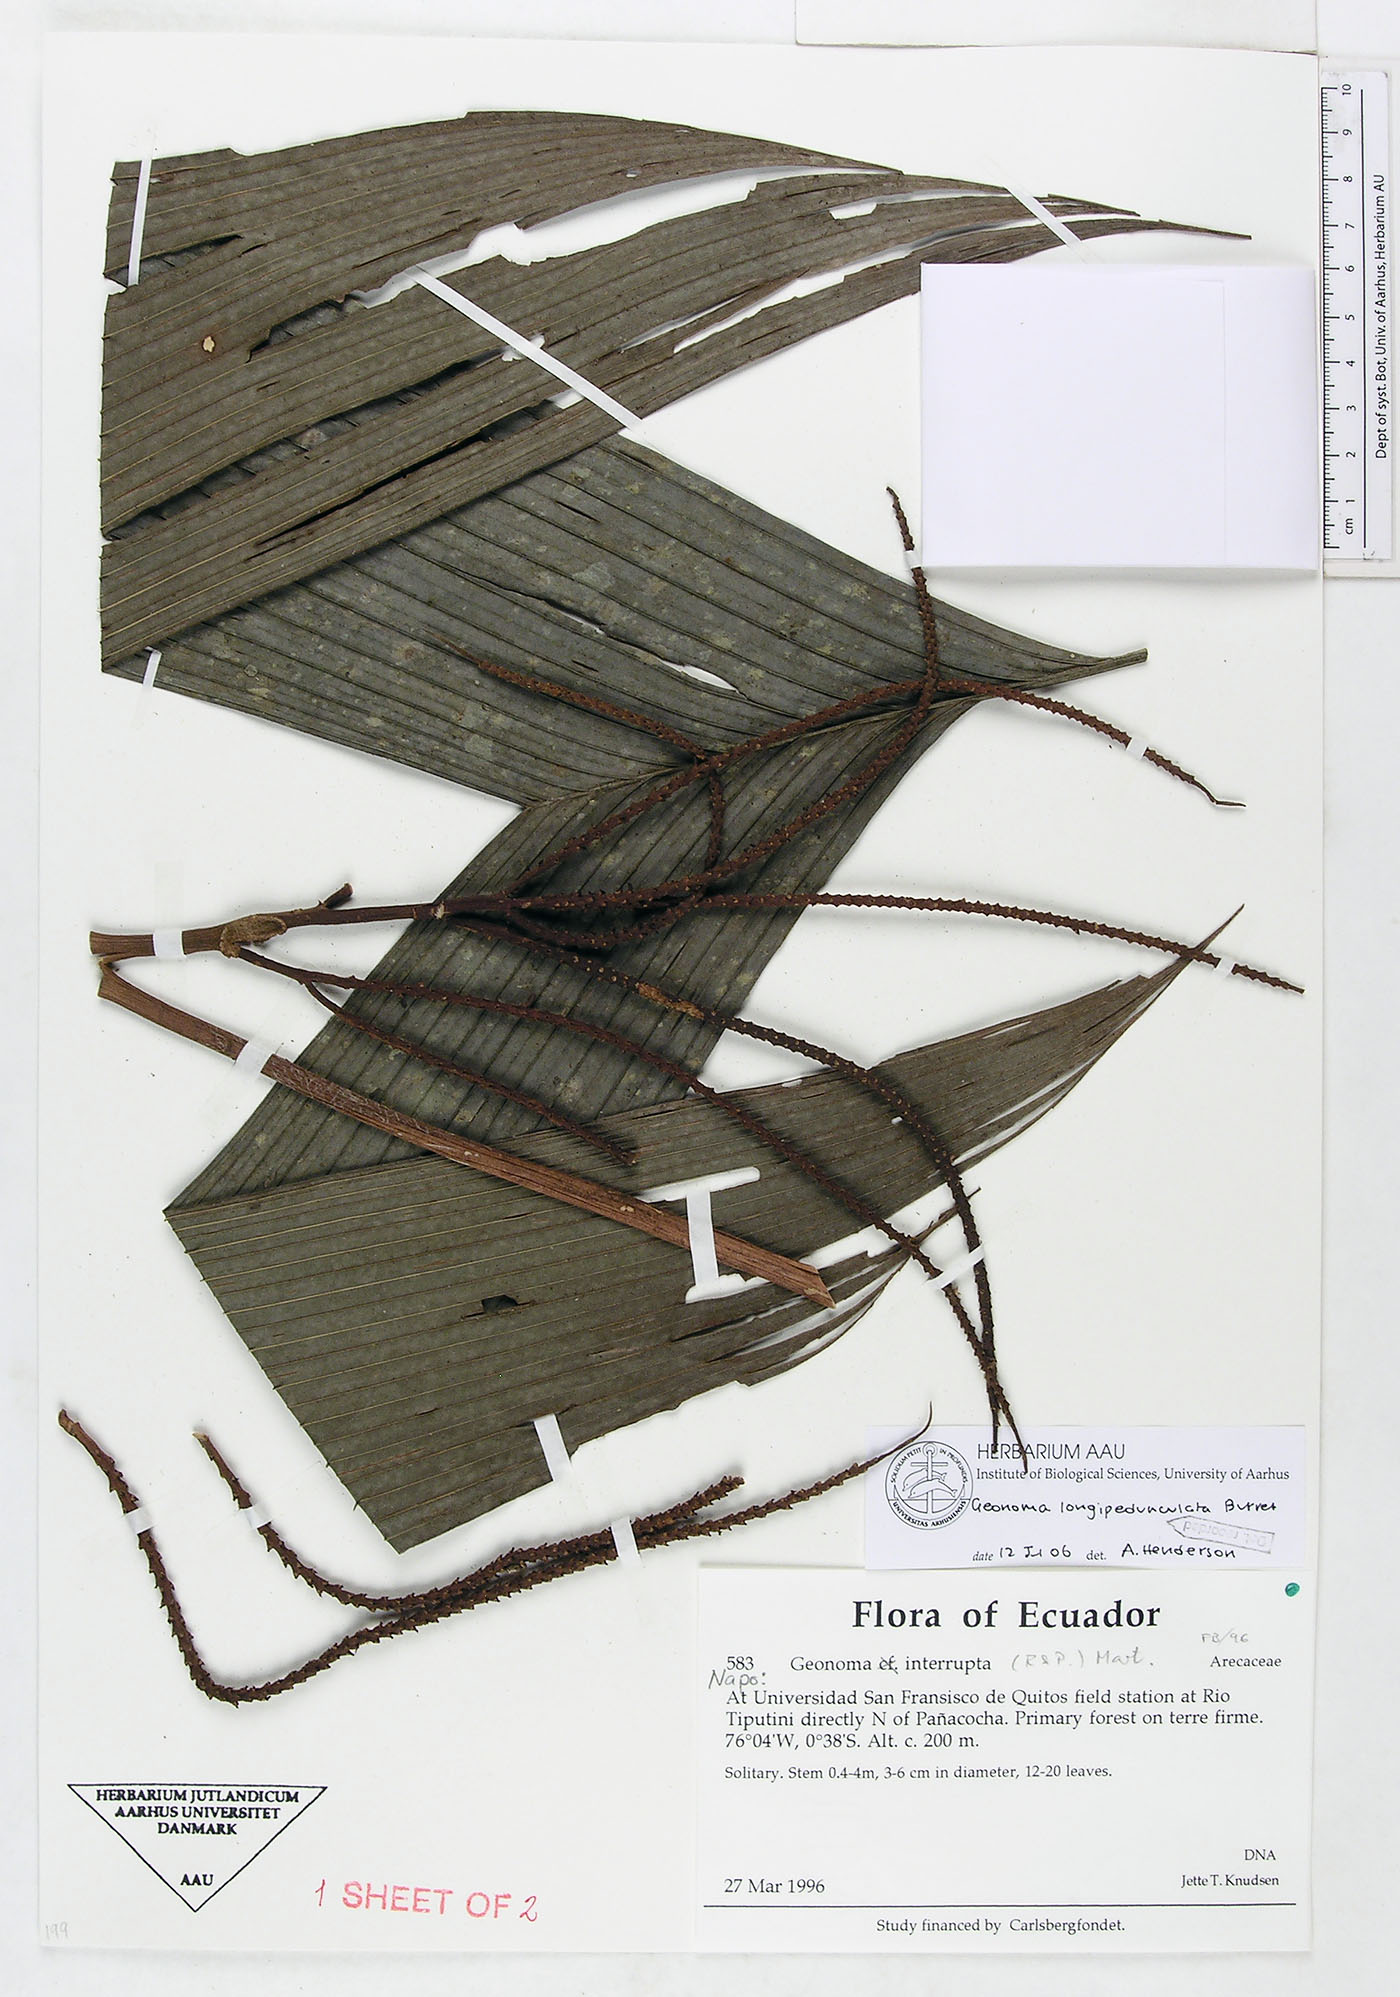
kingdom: Plantae
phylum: Tracheophyta
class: Liliopsida
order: Arecales
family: Arecaceae
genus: Geonoma
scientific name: Geonoma longepedunculata
